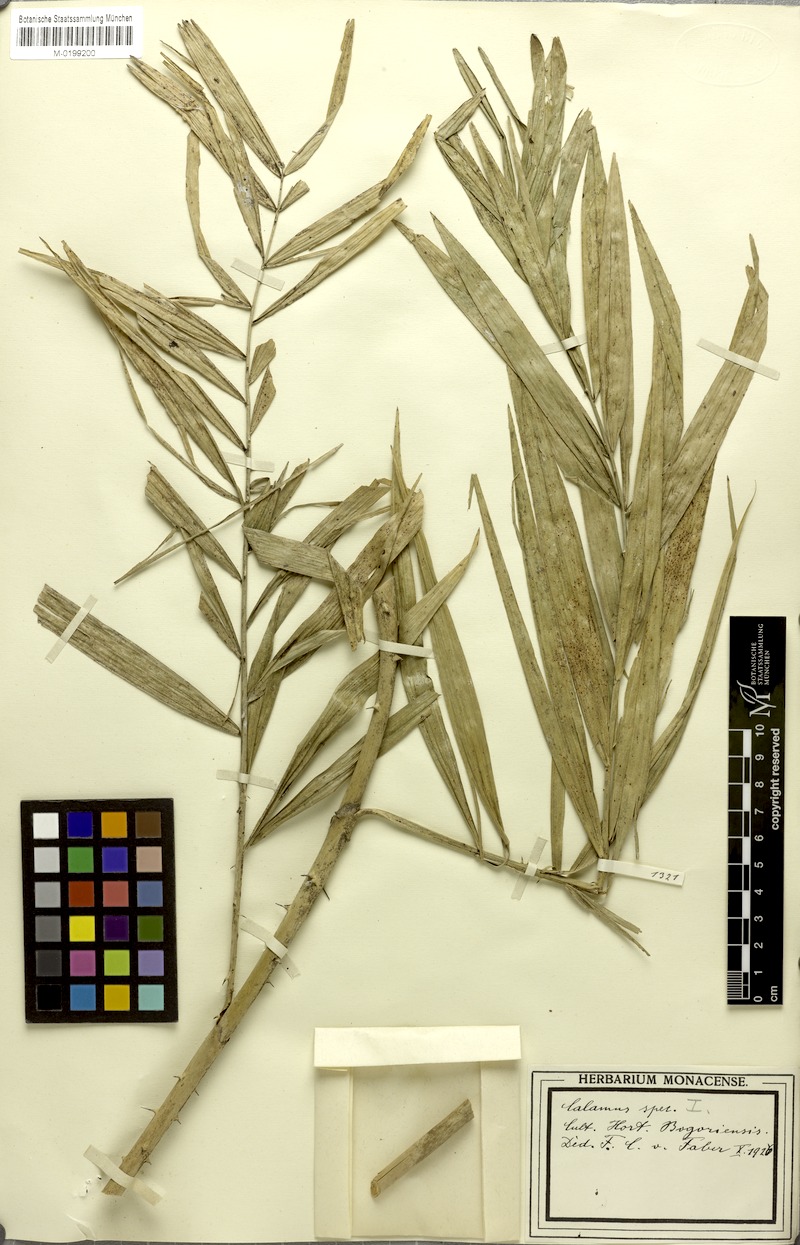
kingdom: Plantae
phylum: Tracheophyta
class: Liliopsida
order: Arecales
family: Arecaceae
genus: Calamus
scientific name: Calamus
